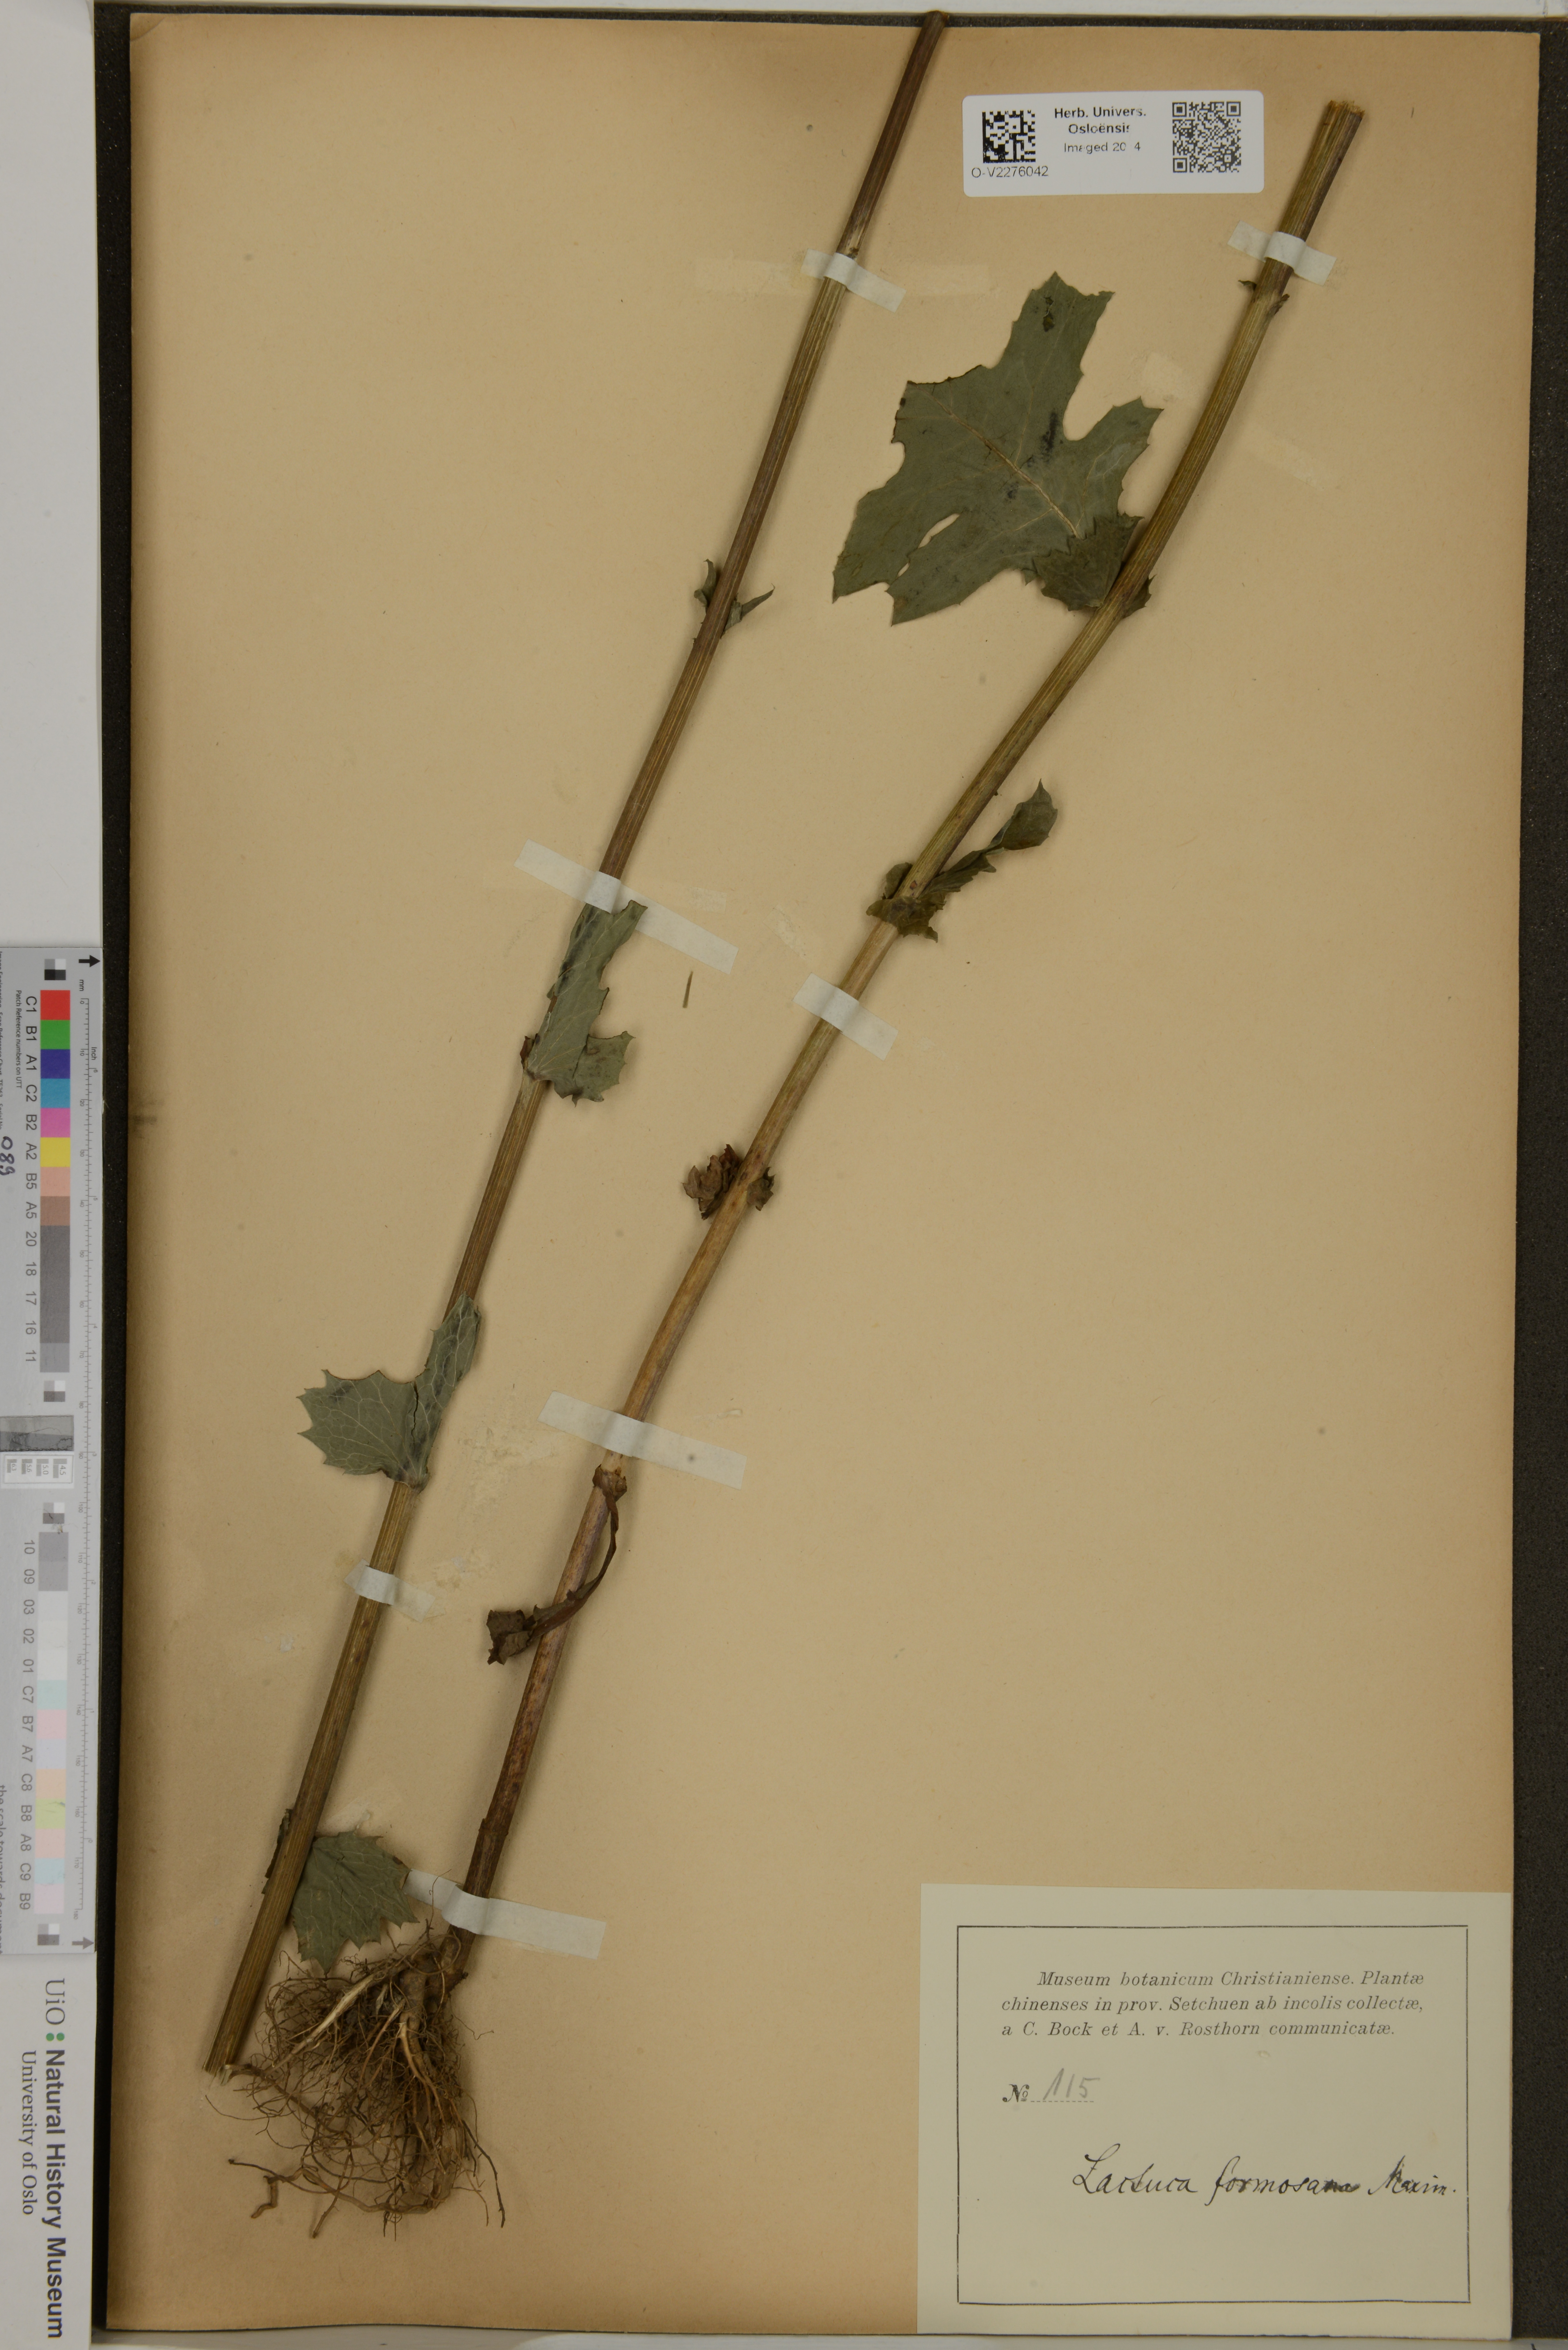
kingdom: Plantae
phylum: Tracheophyta
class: Magnoliopsida
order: Asterales
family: Asteraceae
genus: Lactuca
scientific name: Lactuca formosana
